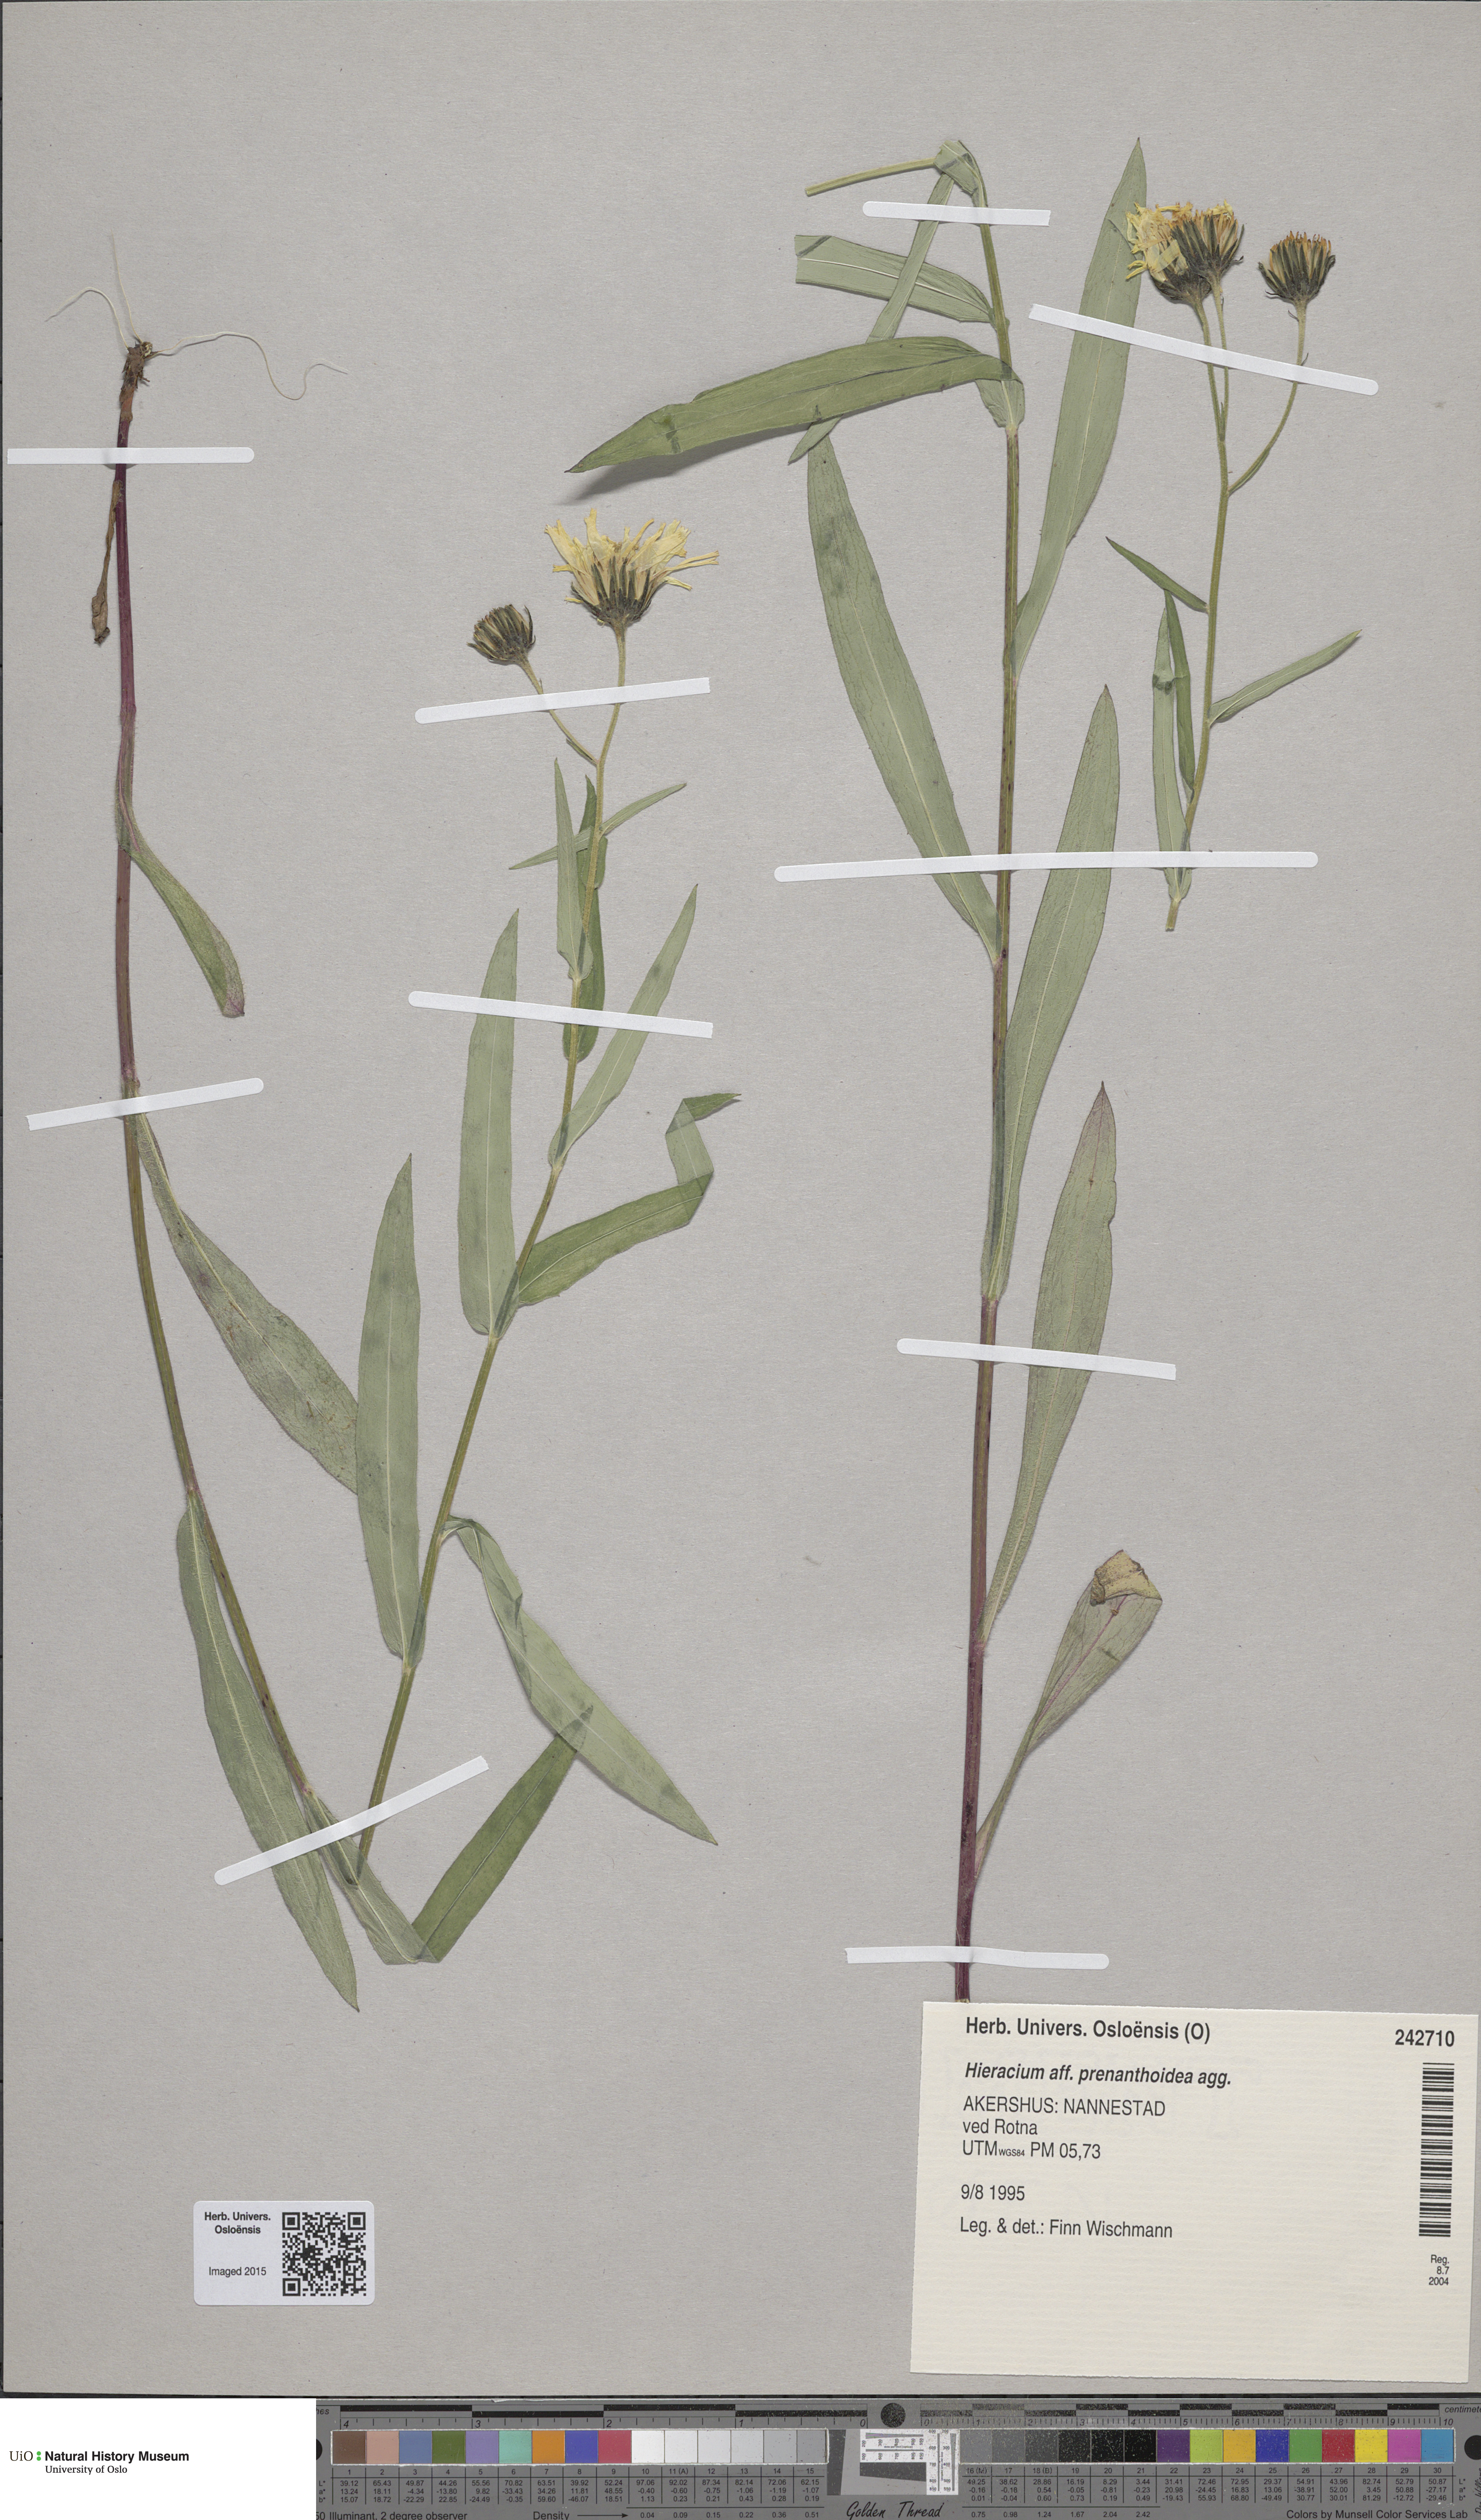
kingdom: Plantae
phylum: Tracheophyta
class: Magnoliopsida
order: Asterales
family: Asteraceae
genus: Hieracium
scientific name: Hieracium prenanthoides
